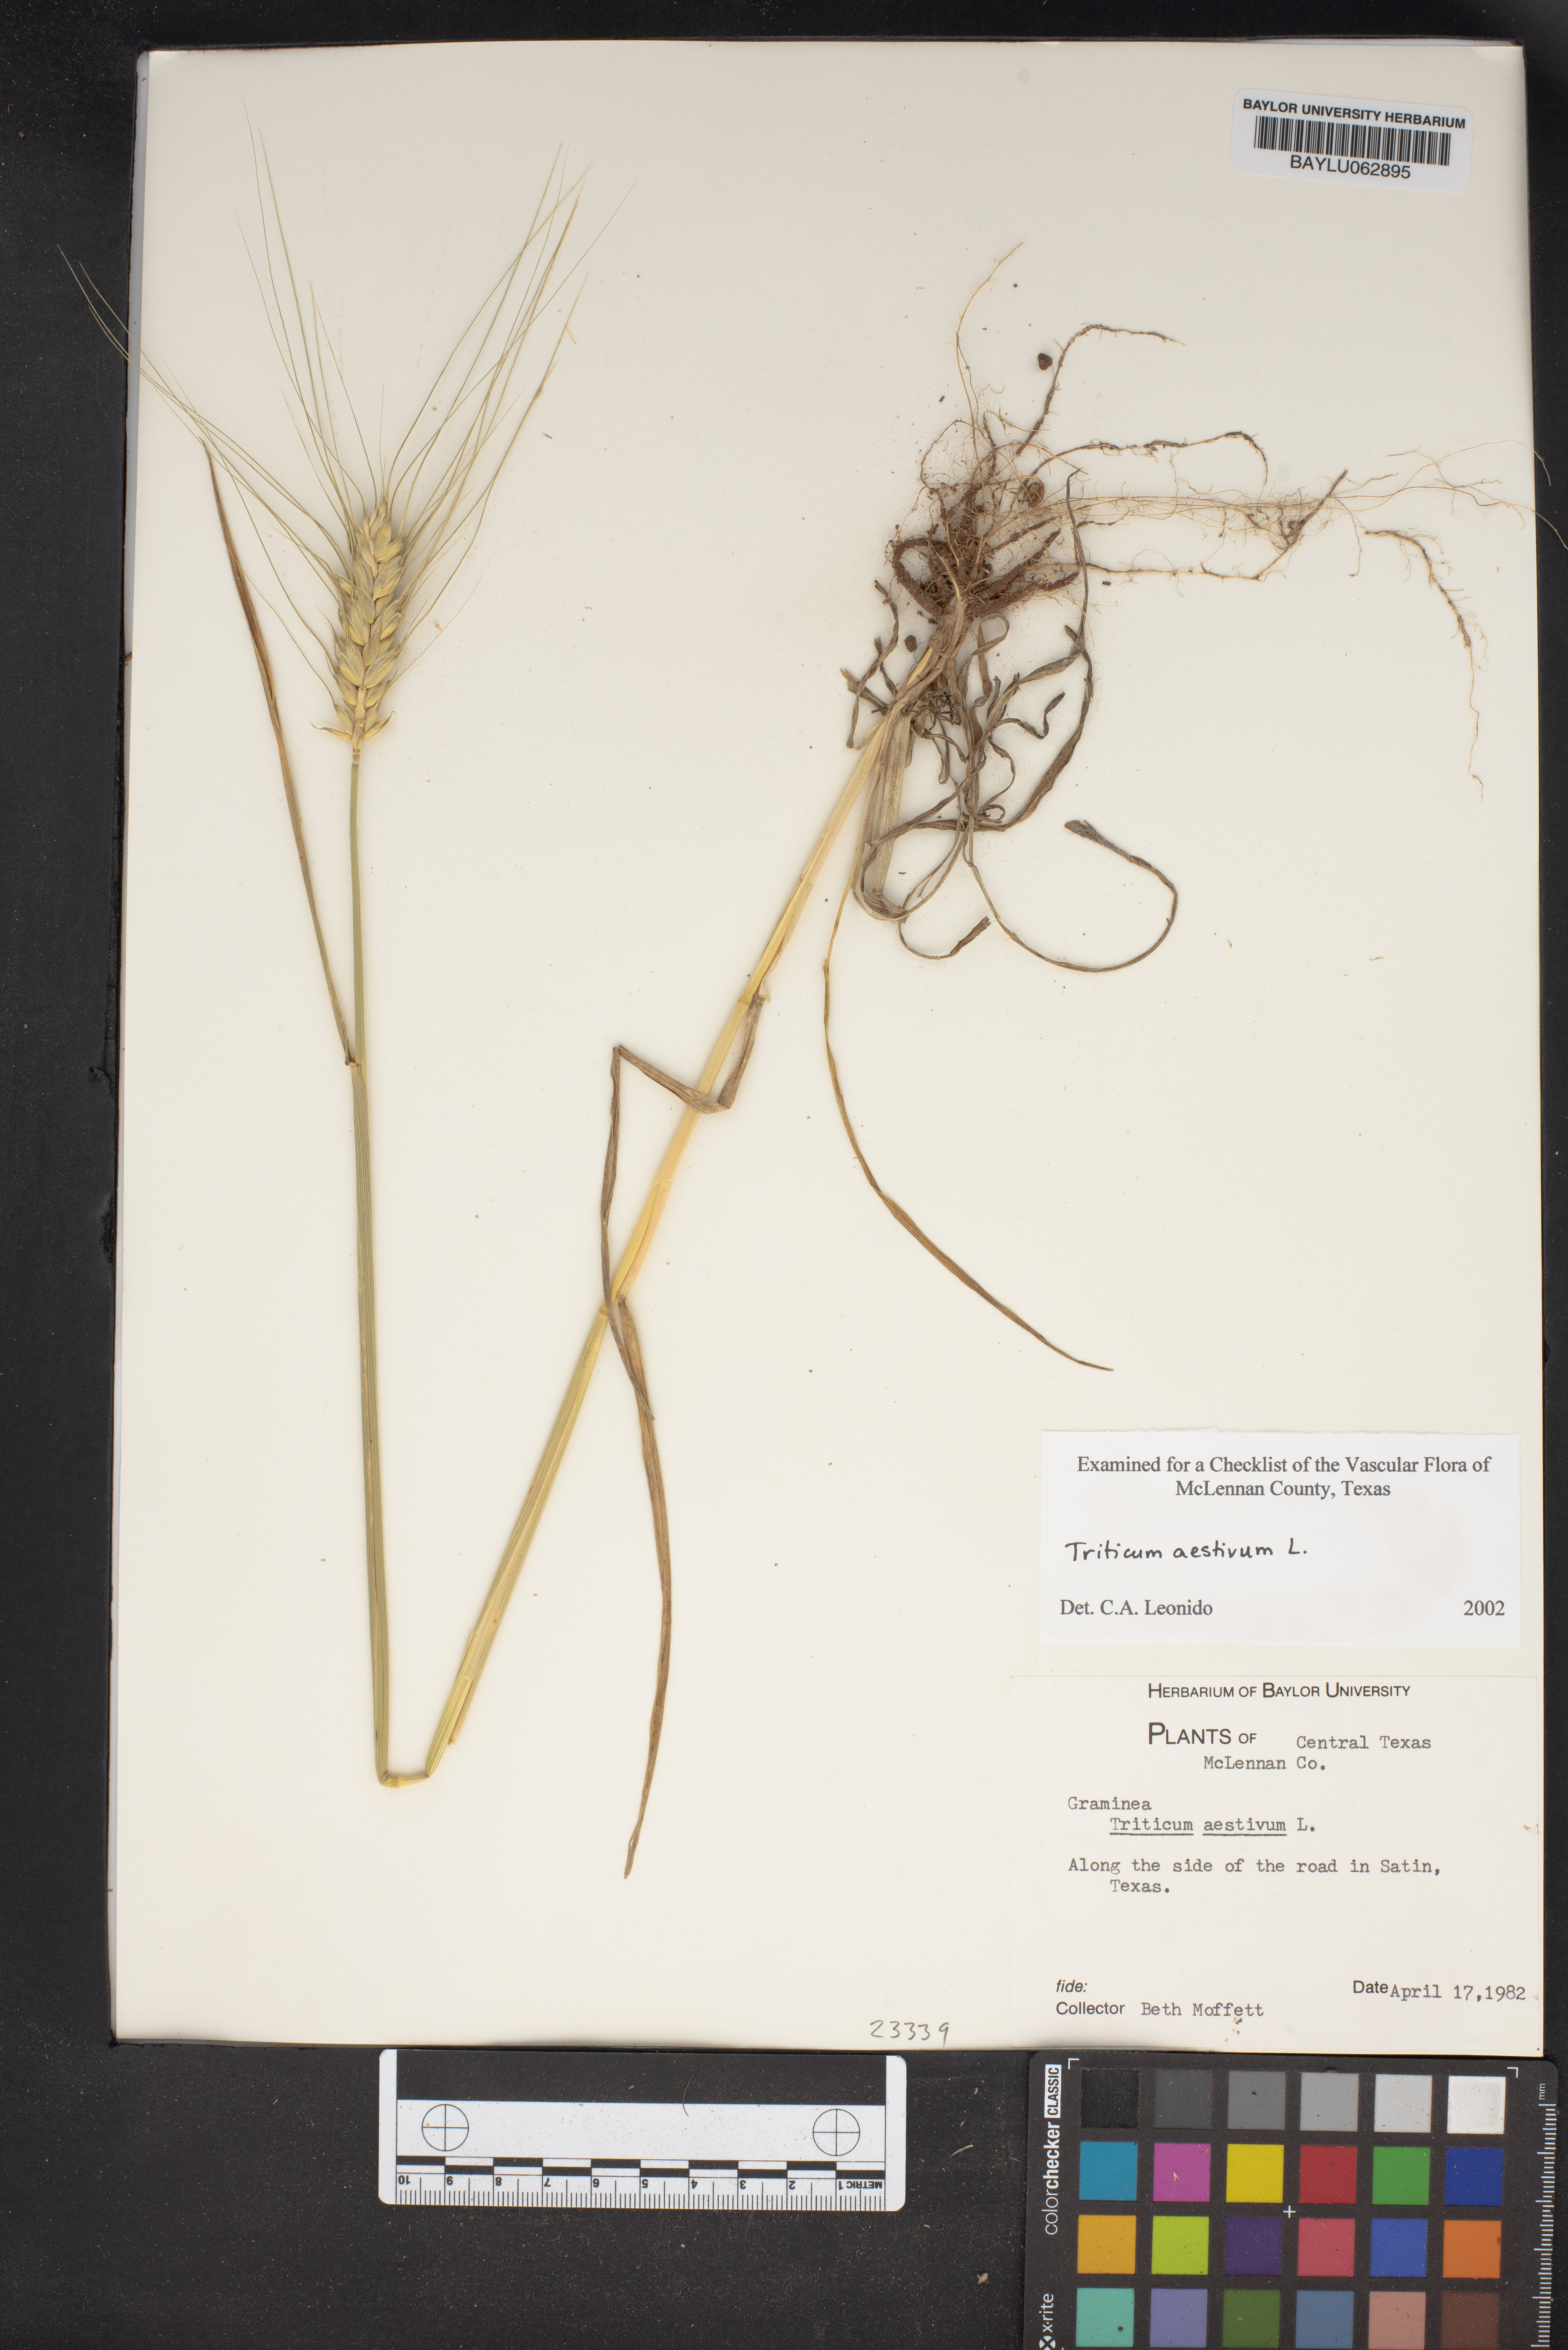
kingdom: Plantae
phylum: Tracheophyta
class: Liliopsida
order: Poales
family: Poaceae
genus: Triticum
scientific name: Triticum aestivum
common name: Common wheat
